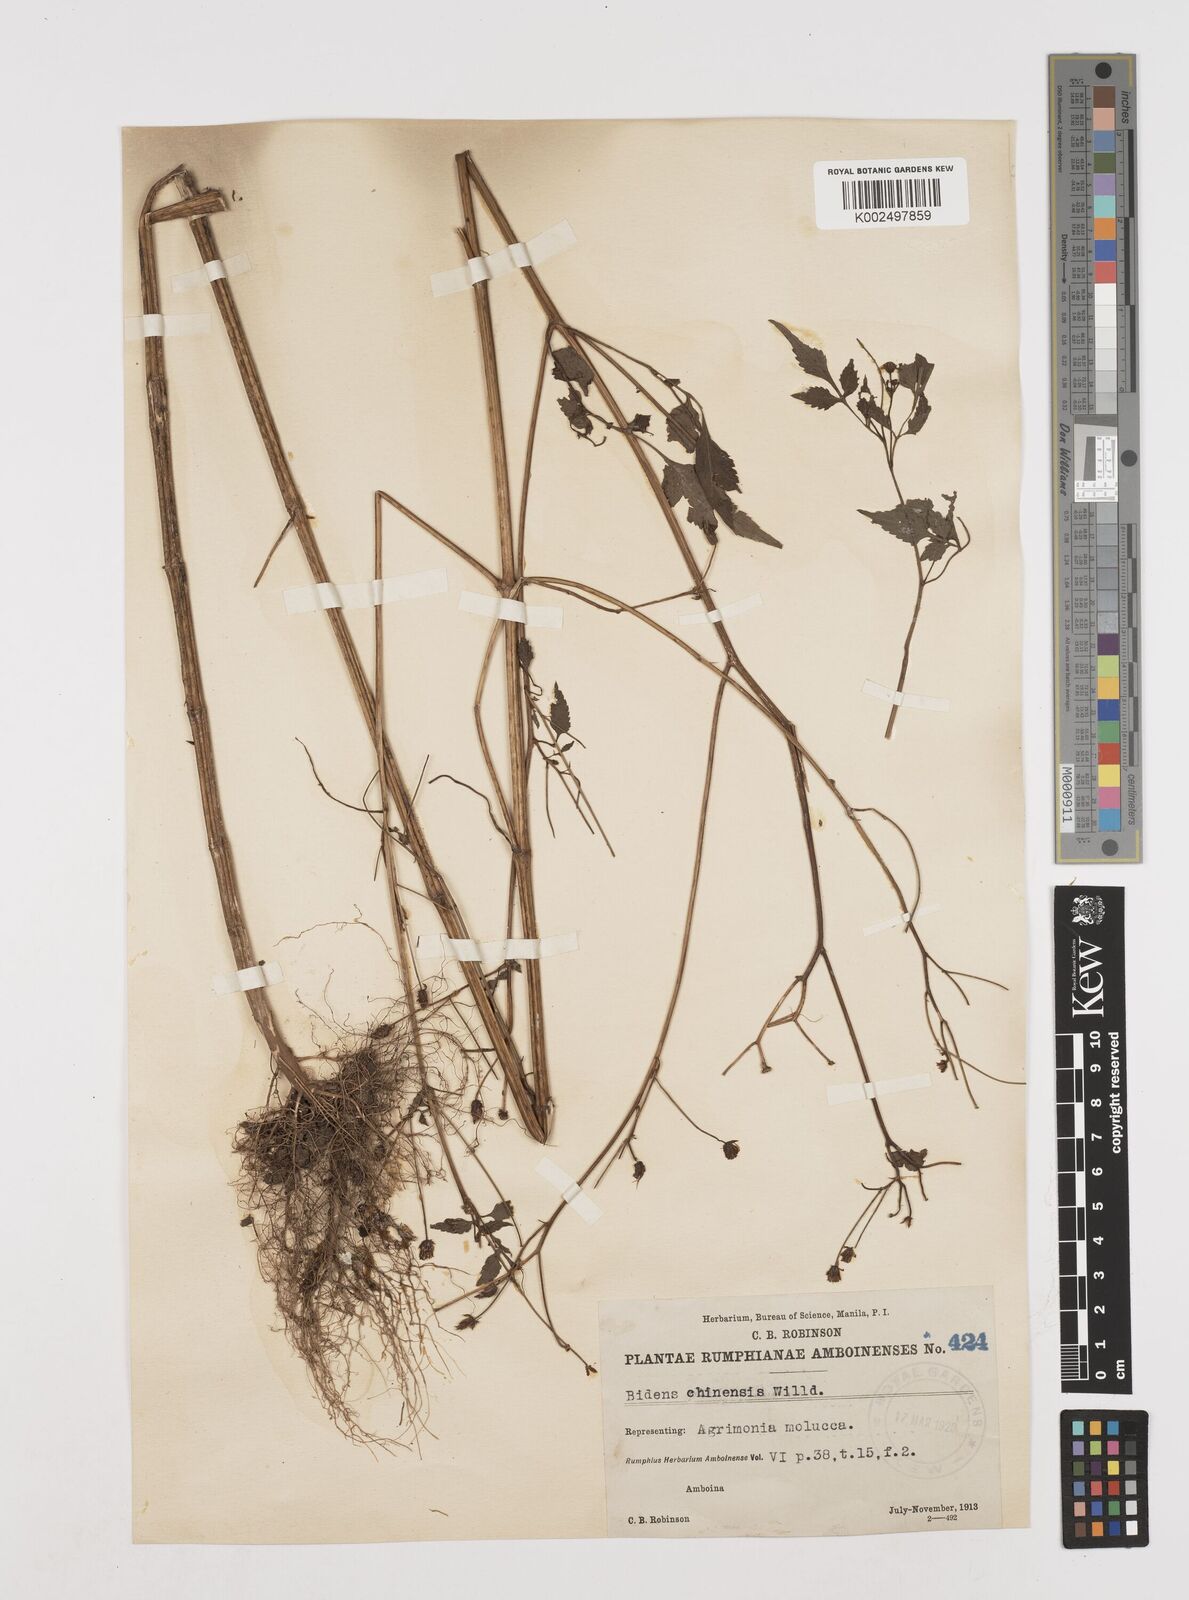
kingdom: Plantae
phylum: Tracheophyta
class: Magnoliopsida
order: Asterales
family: Asteraceae
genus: Bidens
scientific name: Bidens biternata
